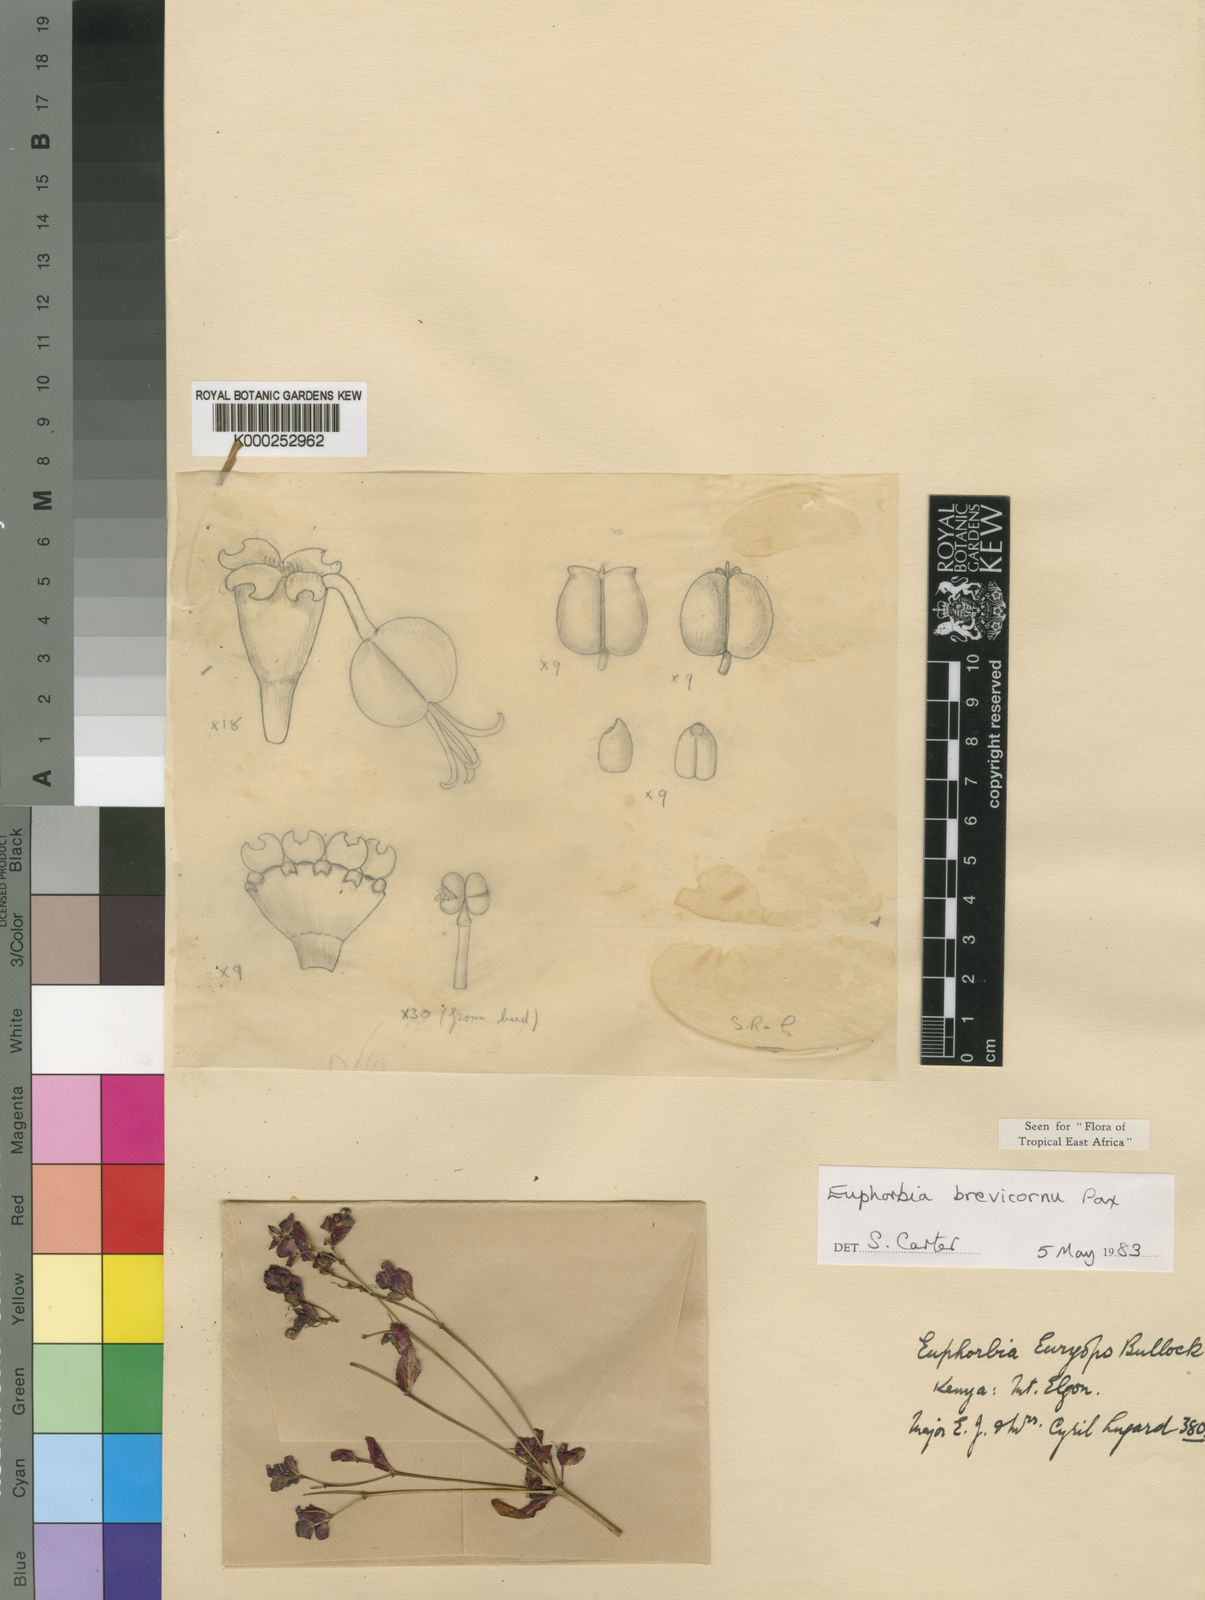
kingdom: Plantae
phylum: Tracheophyta
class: Magnoliopsida
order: Malpighiales
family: Euphorbiaceae
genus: Euphorbia
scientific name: Euphorbia brevicornu
